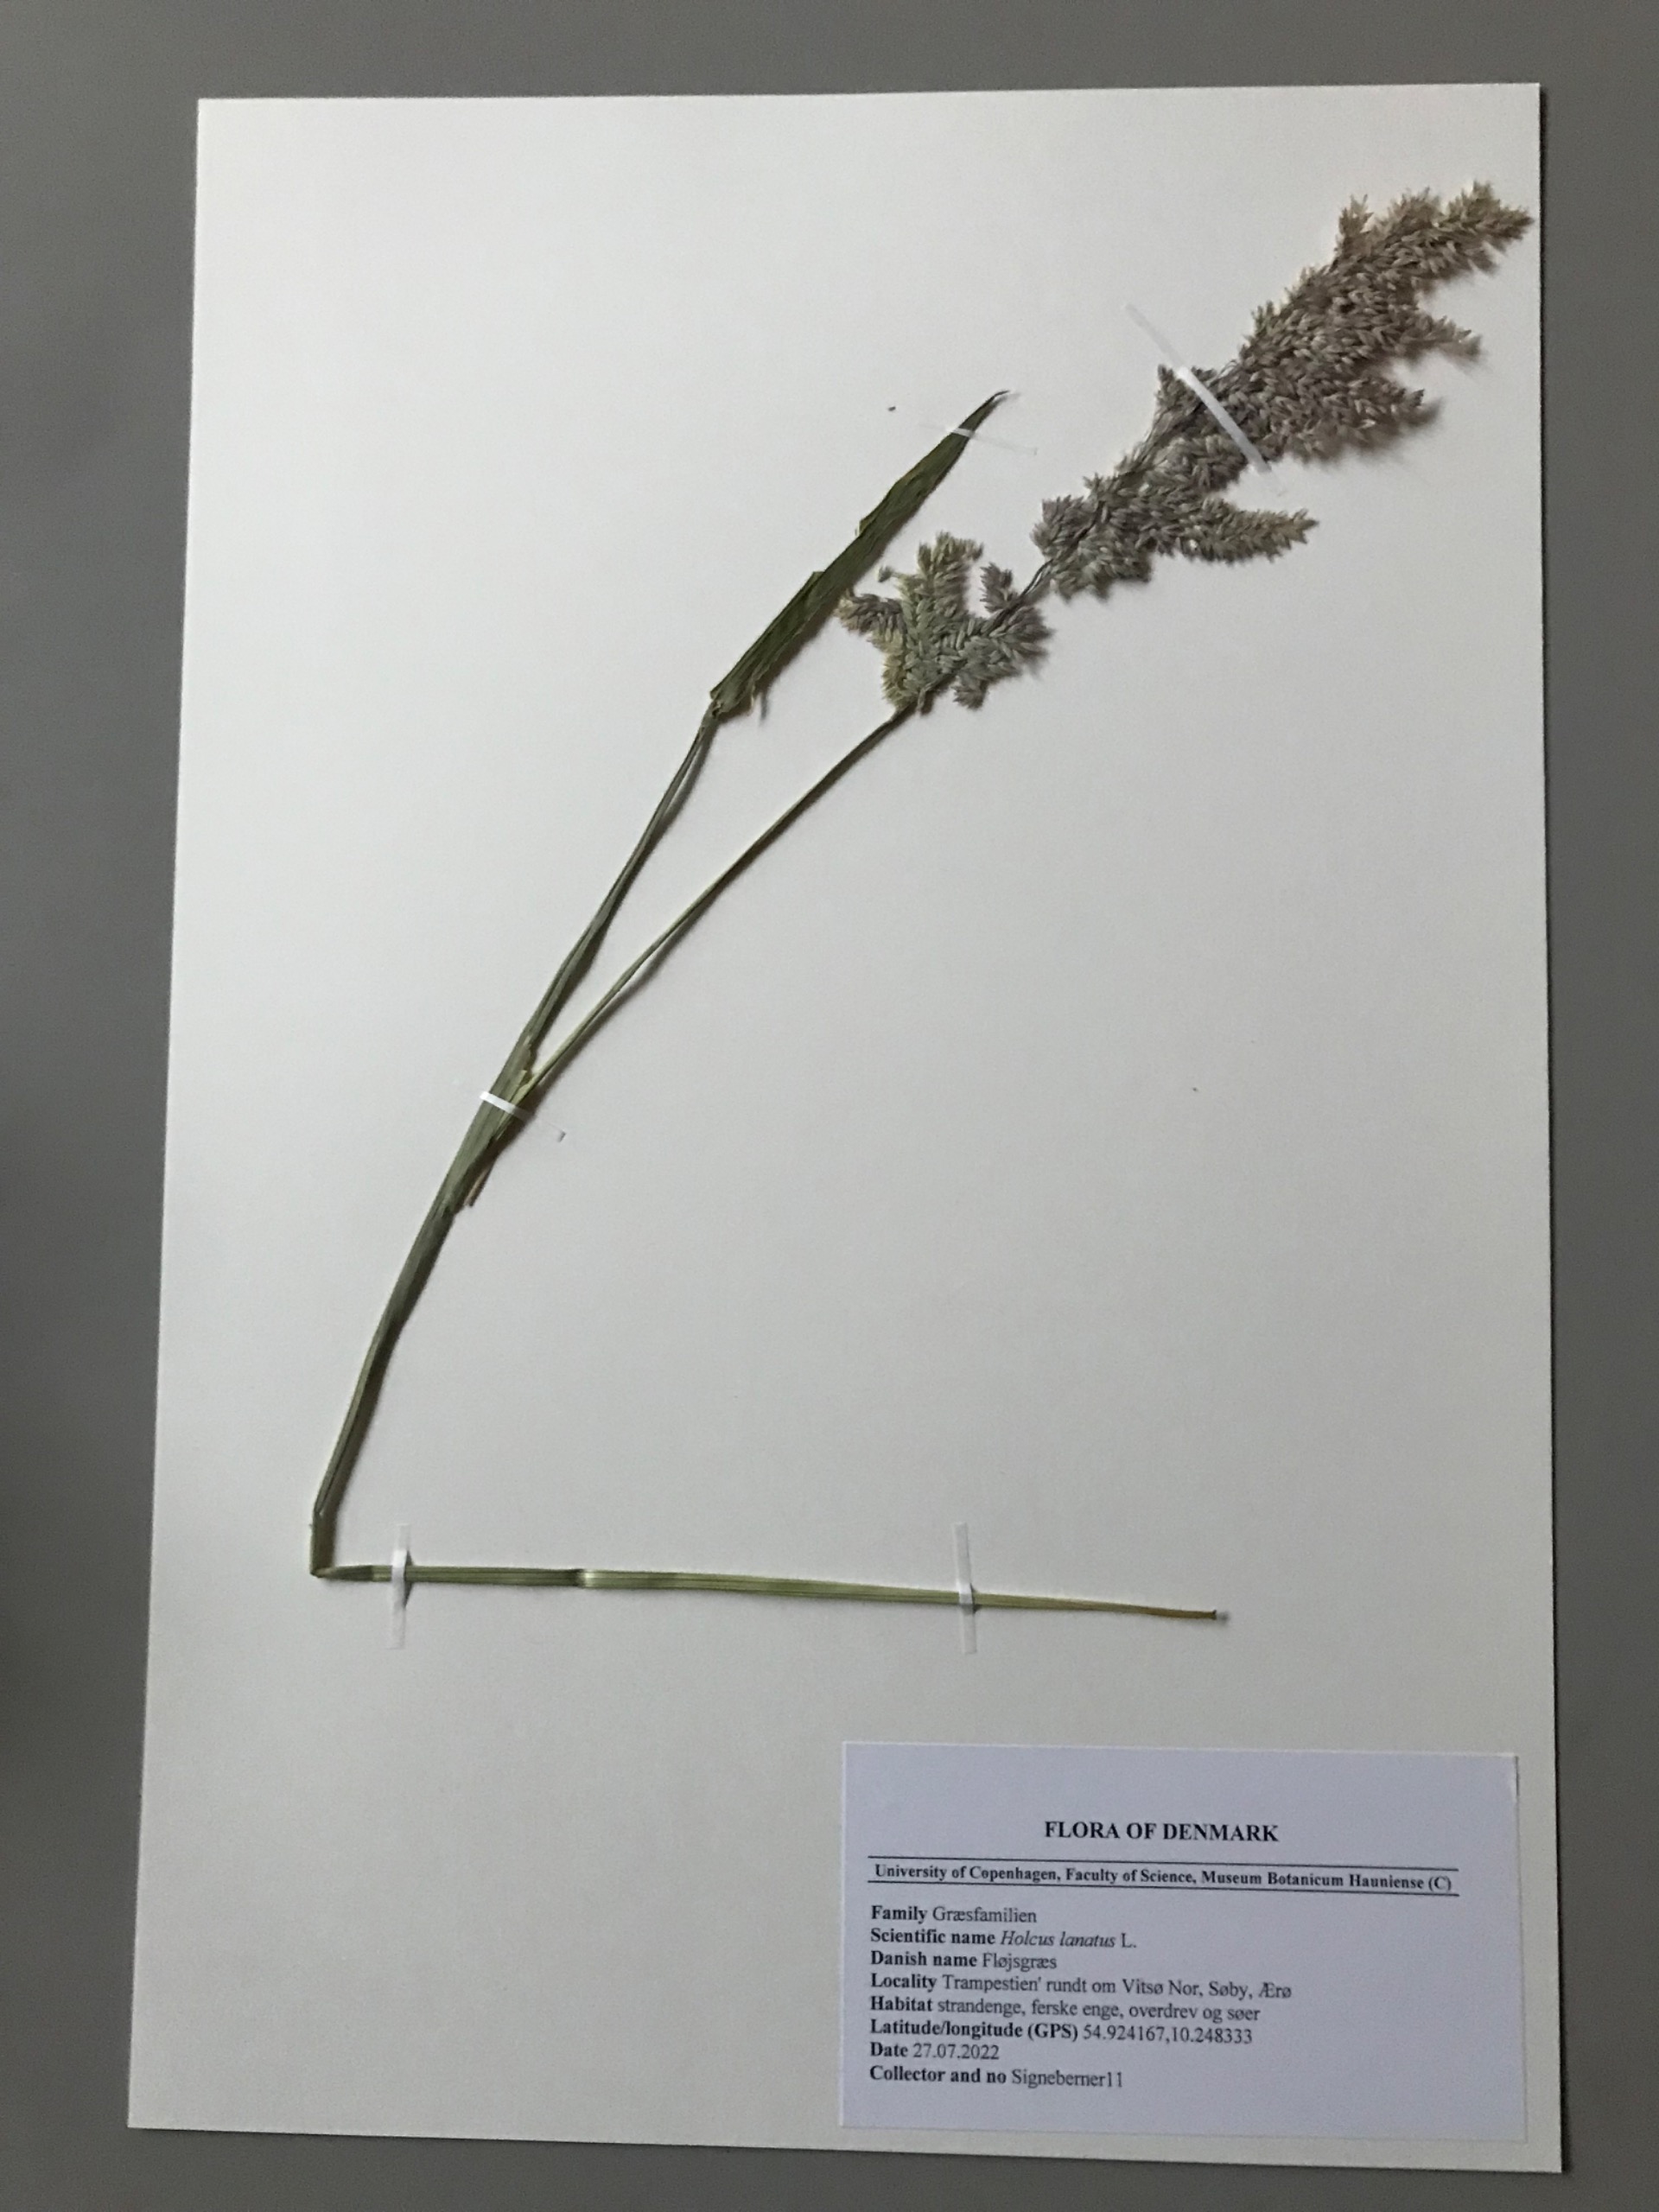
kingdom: Plantae
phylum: Tracheophyta
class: Liliopsida
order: Poales
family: Poaceae
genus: Holcus
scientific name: Holcus lanatus
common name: Fløjlsgræs
